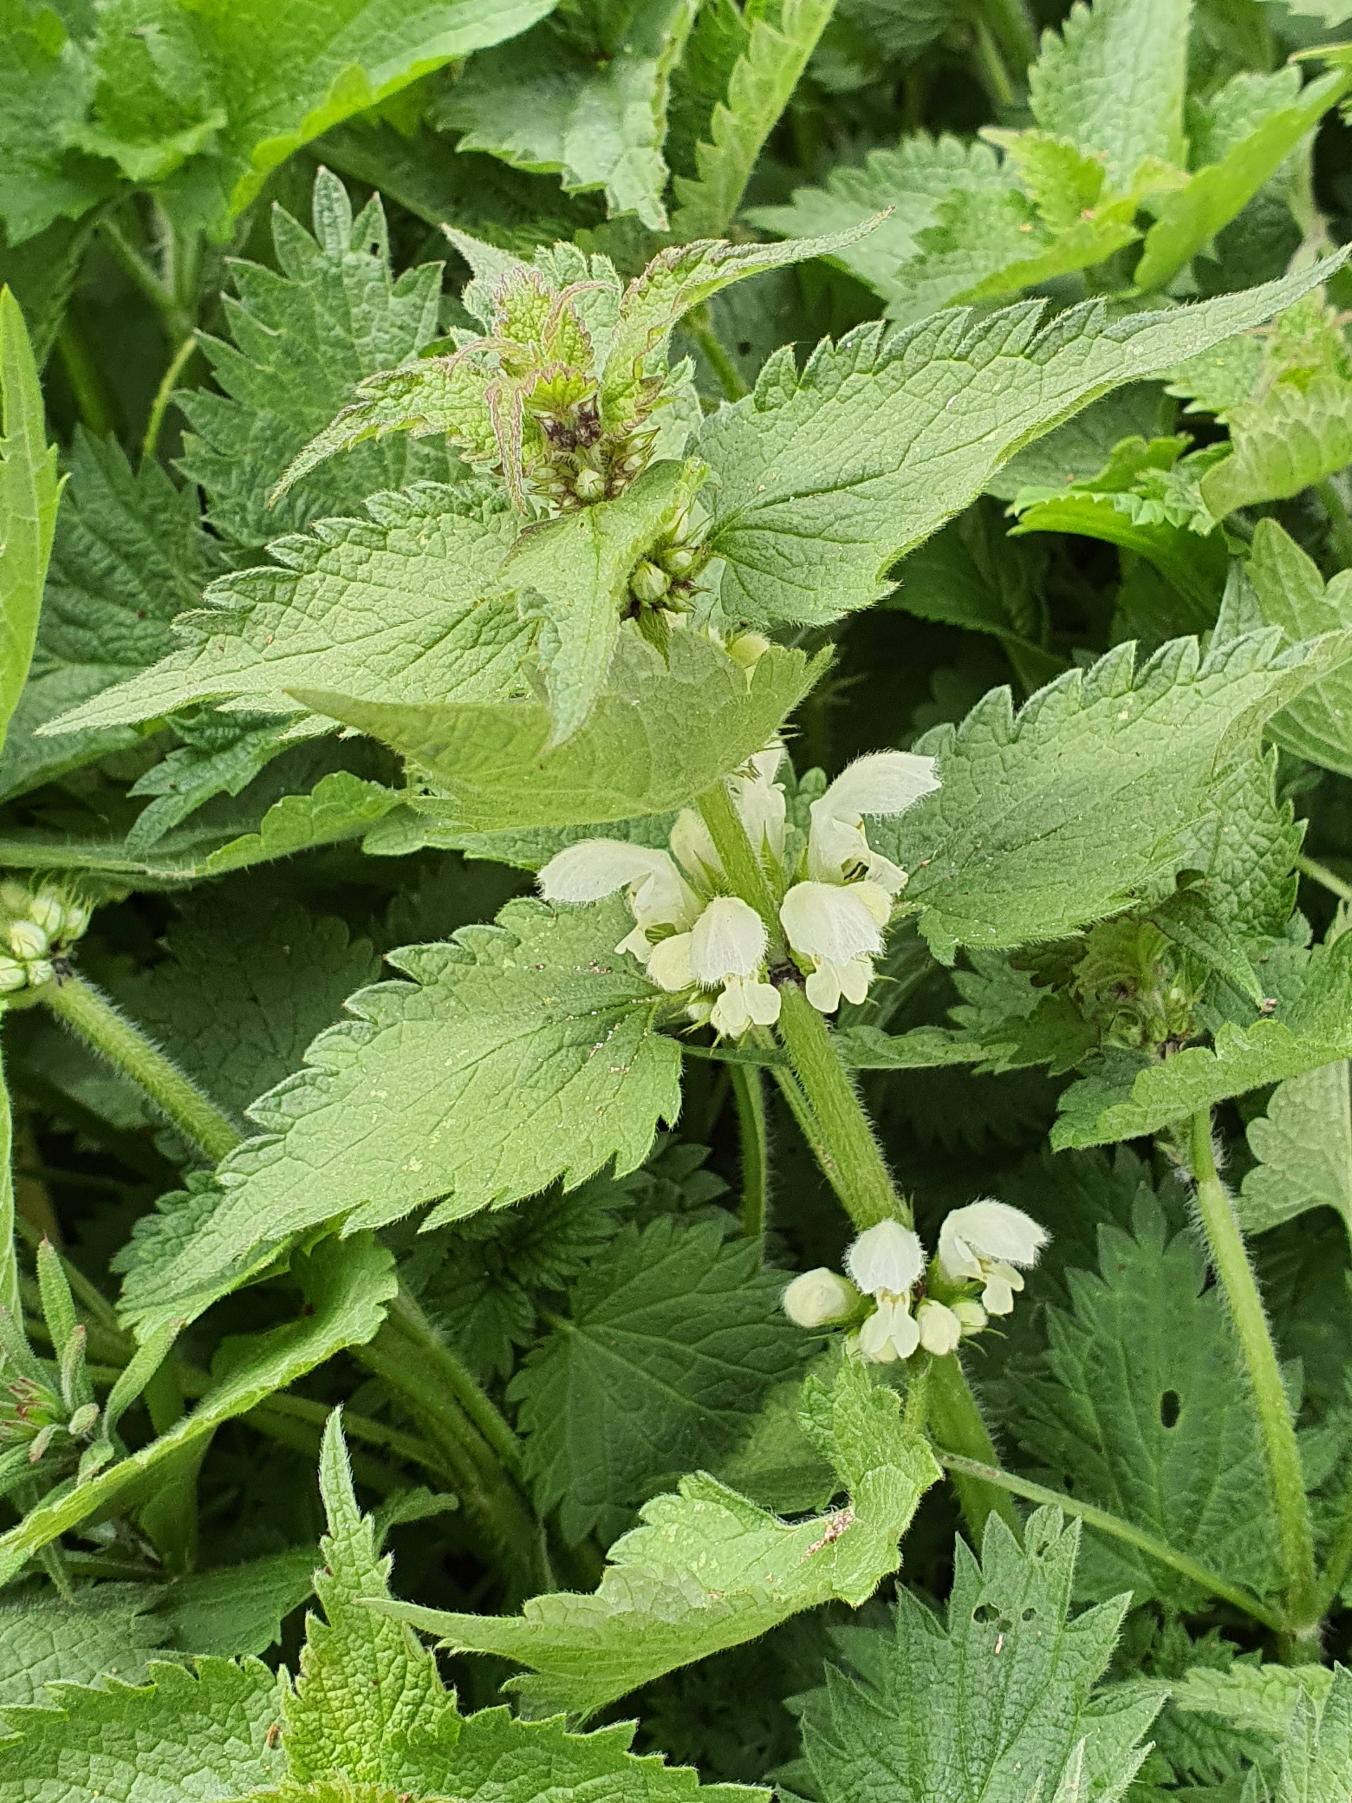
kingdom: Plantae
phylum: Tracheophyta
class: Magnoliopsida
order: Lamiales
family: Lamiaceae
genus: Lamium
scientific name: Lamium album
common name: Døvnælde
